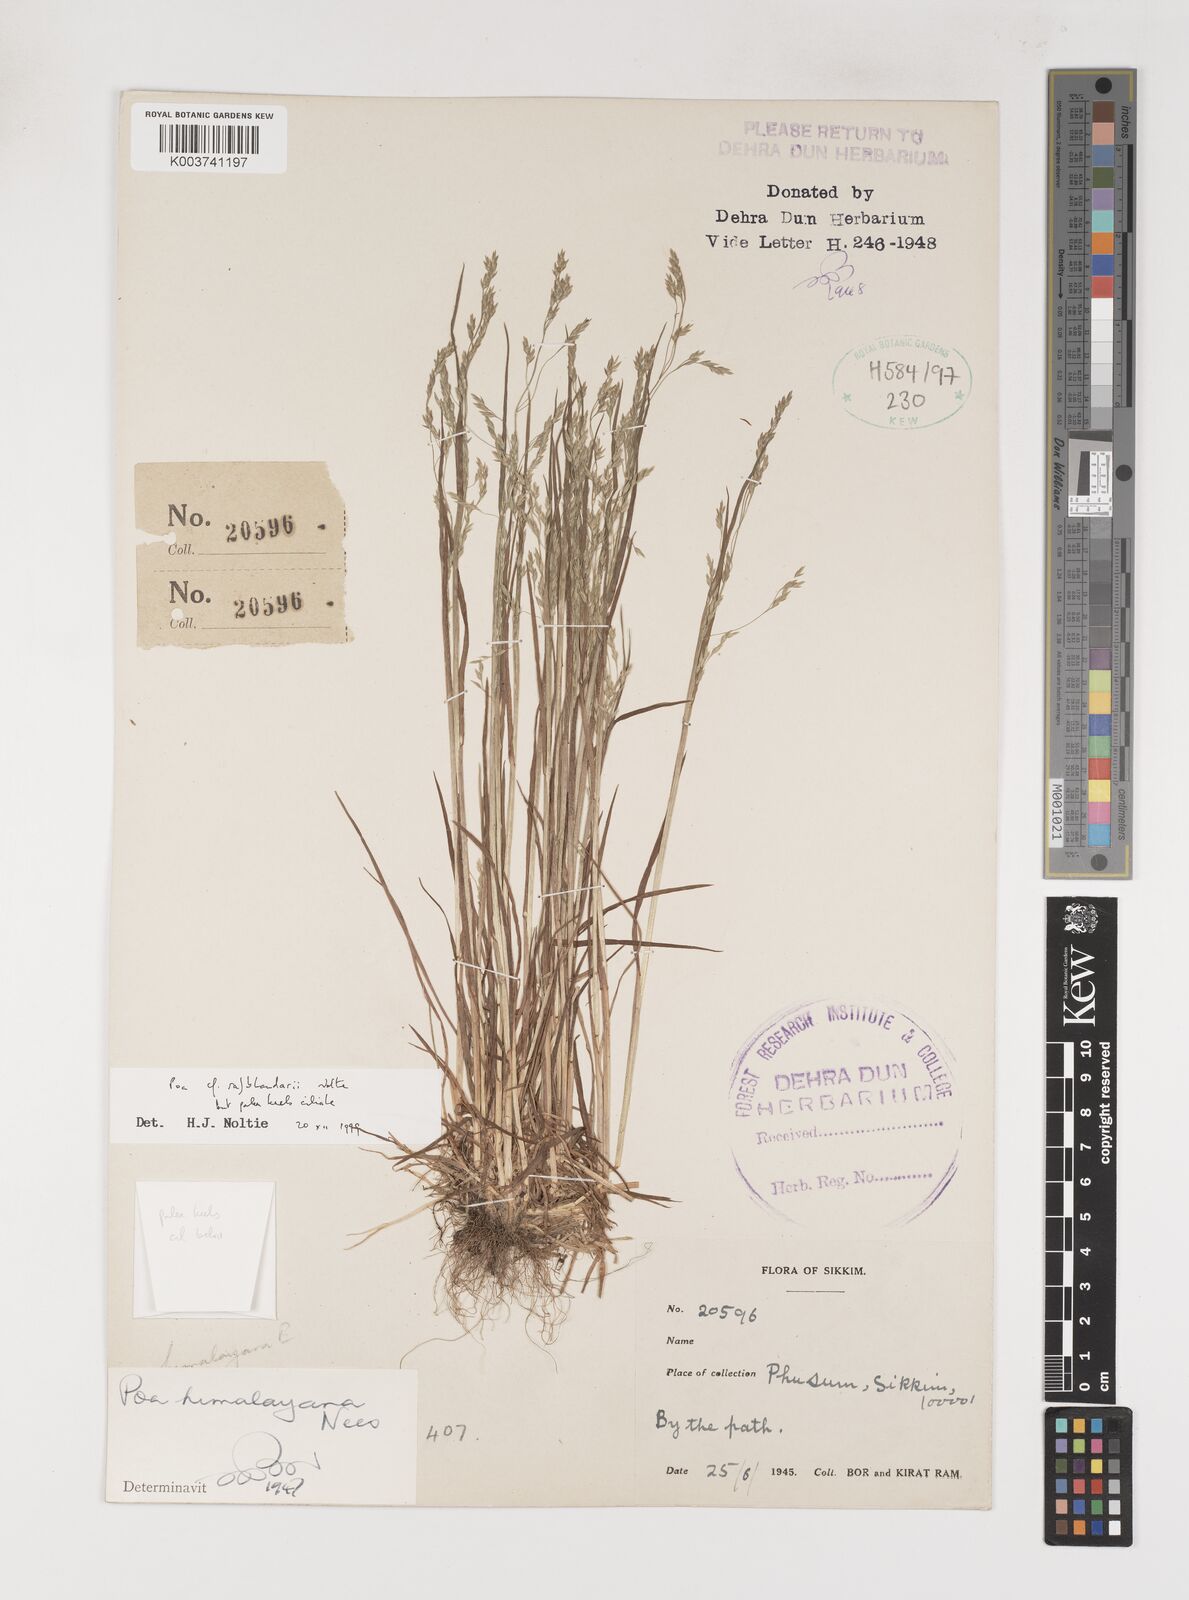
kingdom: Plantae
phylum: Tracheophyta
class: Liliopsida
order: Poales
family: Poaceae
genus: Poa
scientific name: Poa rajbhandarii
